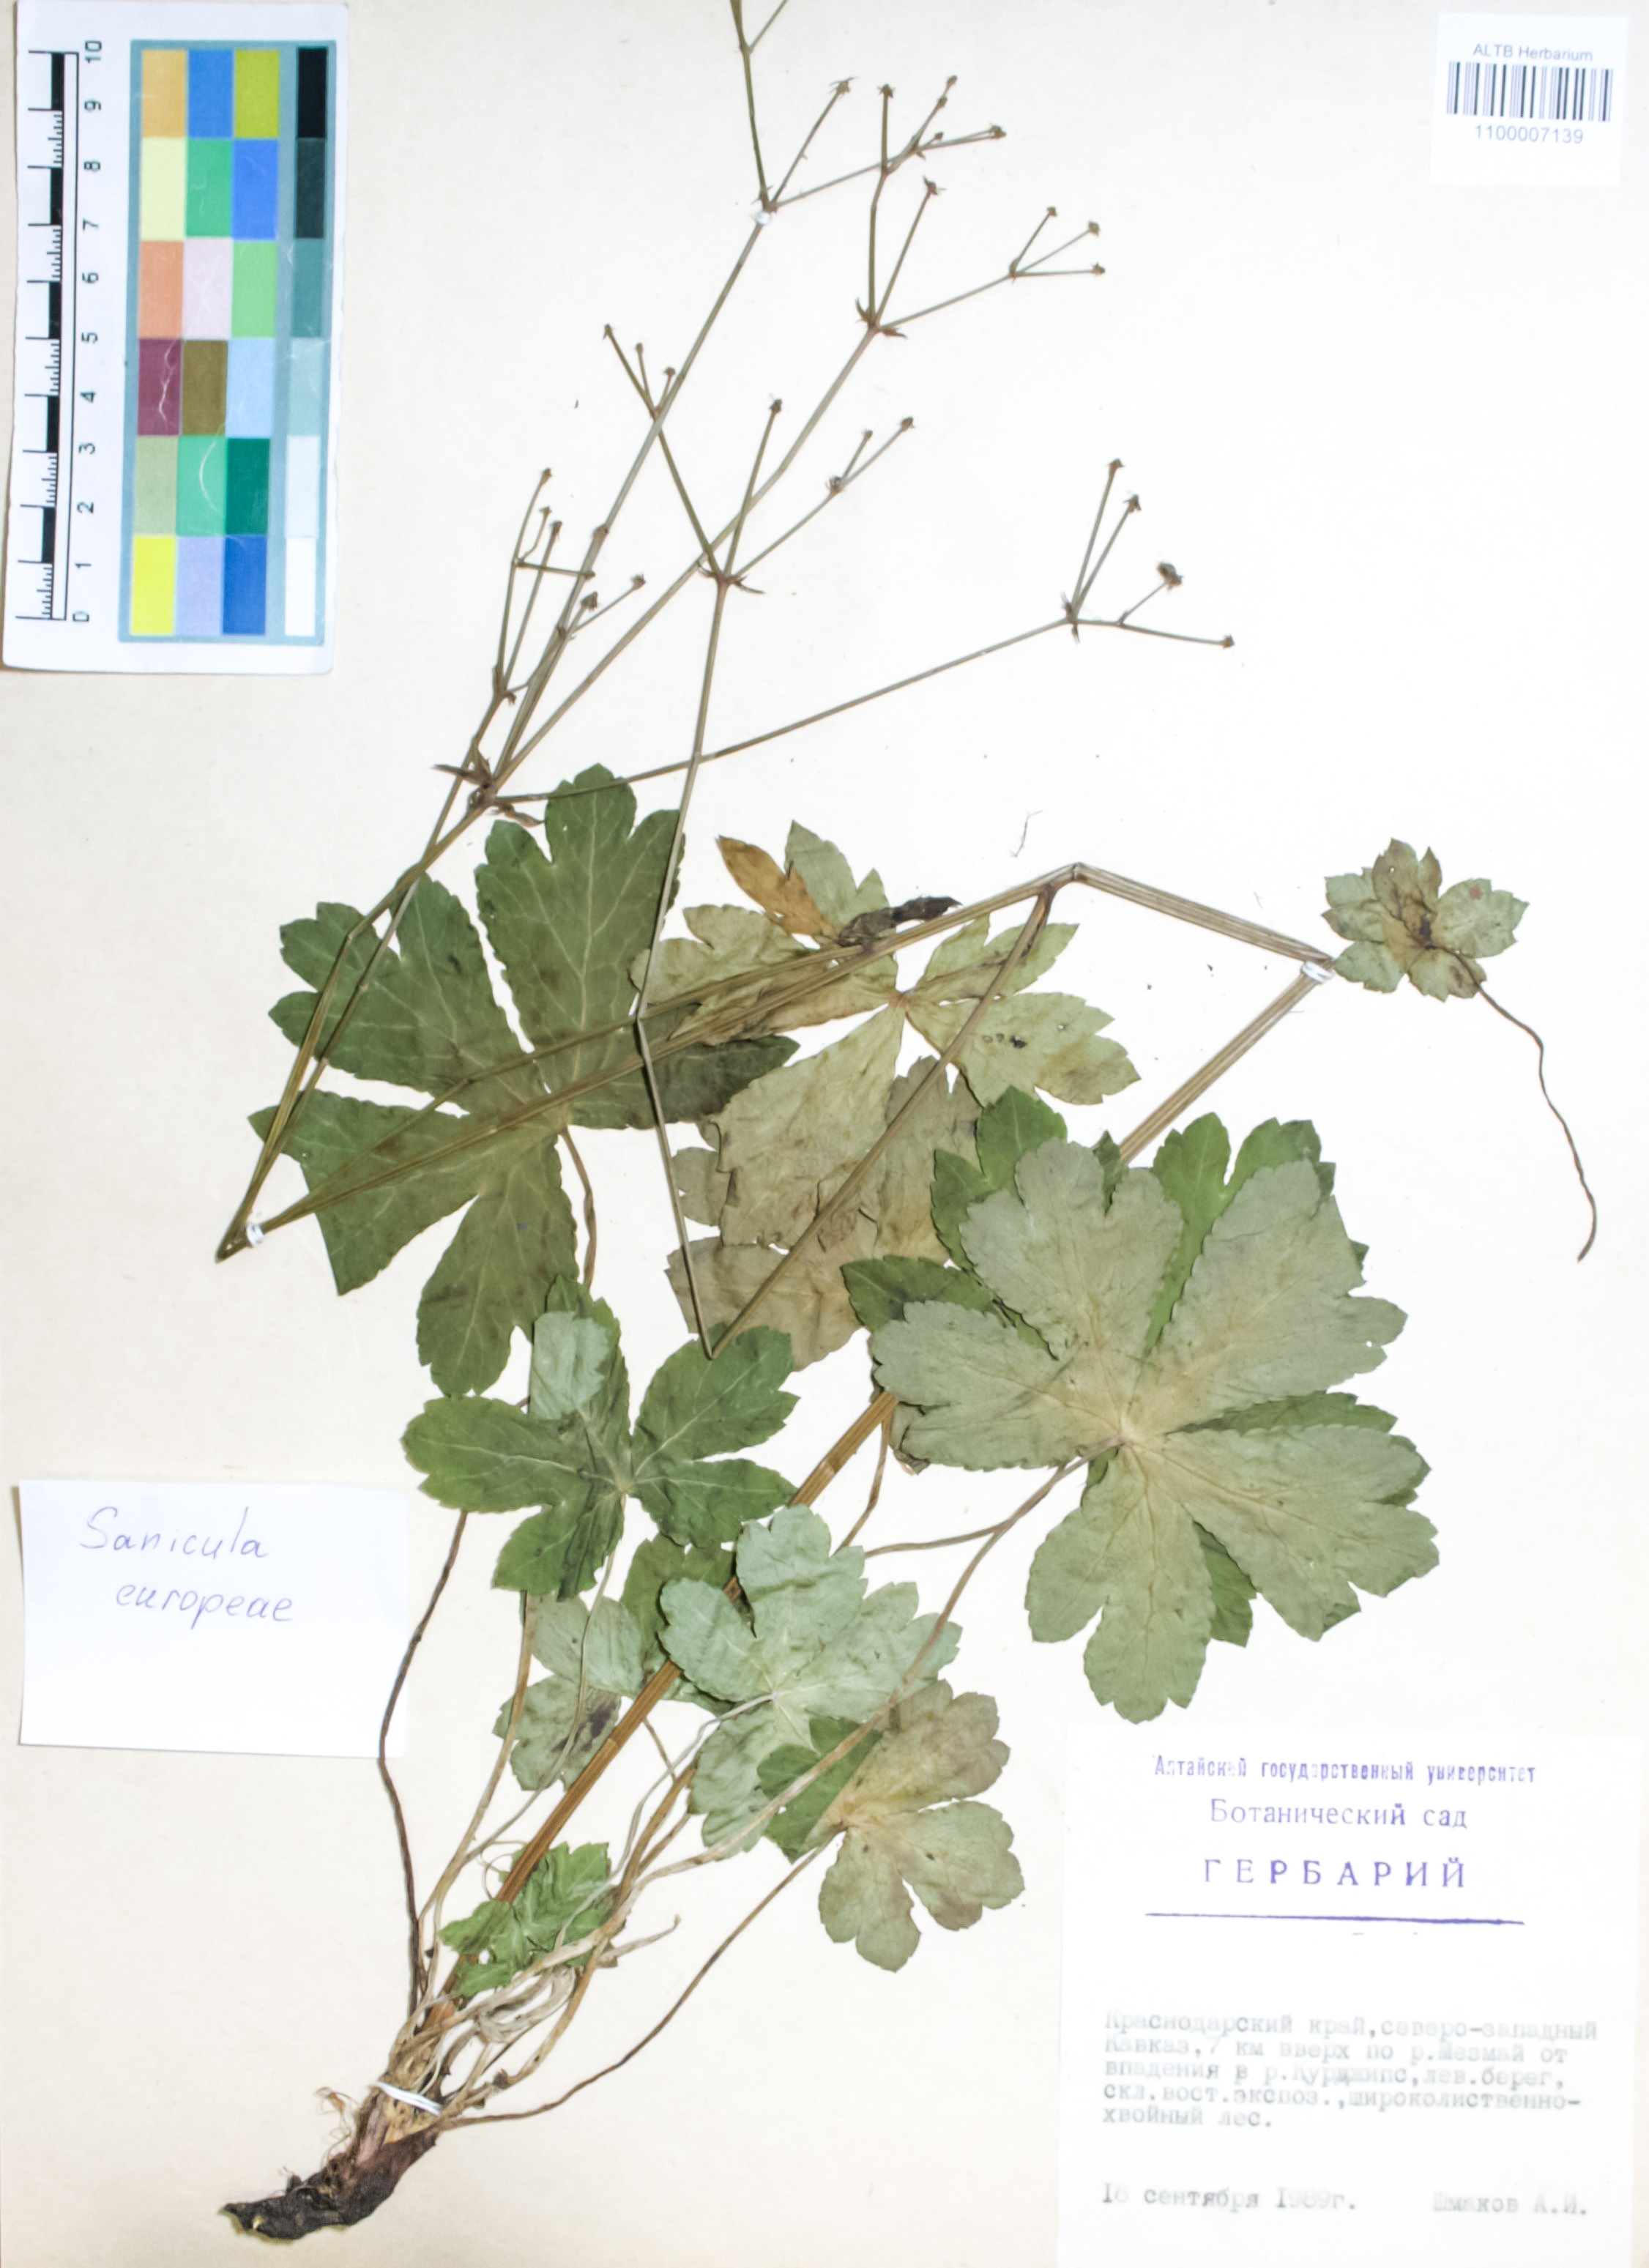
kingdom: Plantae
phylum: Tracheophyta
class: Magnoliopsida
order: Apiales
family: Apiaceae
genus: Sanicula
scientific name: Sanicula europaea
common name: Sanicle
